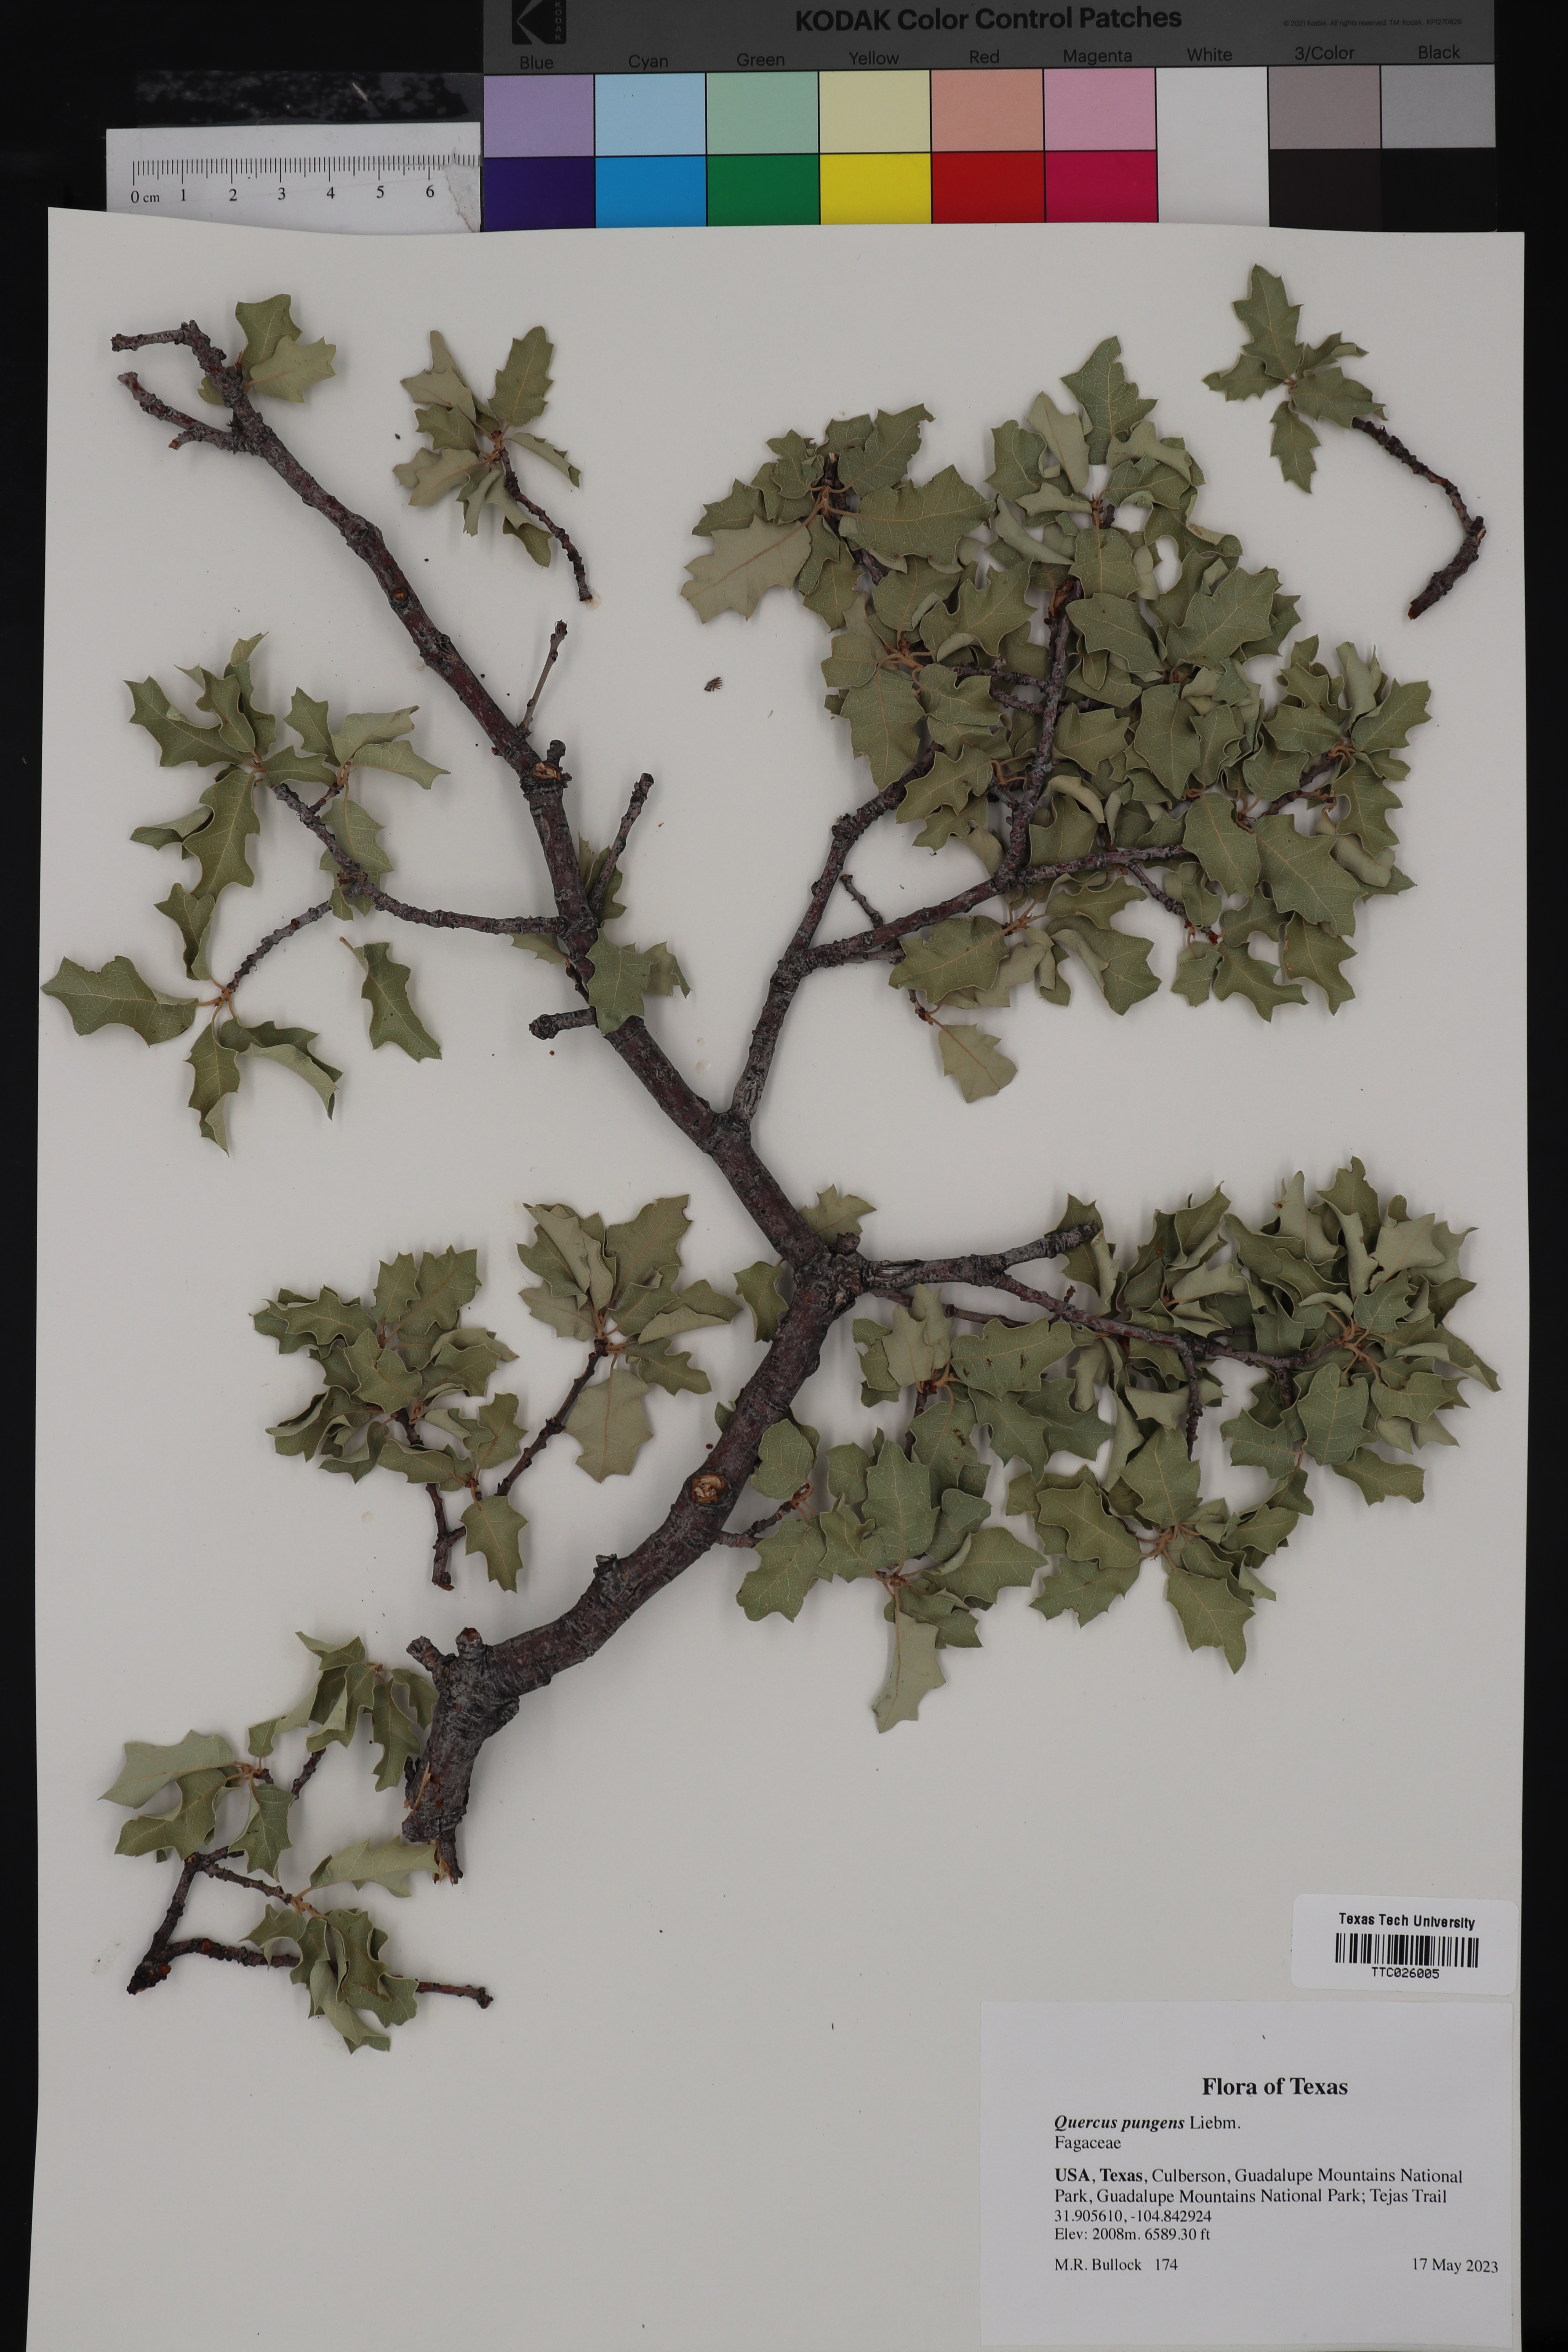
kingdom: Plantae
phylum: Tracheophyta
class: Magnoliopsida
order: Fagales
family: Fagaceae
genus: Quercus
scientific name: Quercus pungens
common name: Pungent oak
